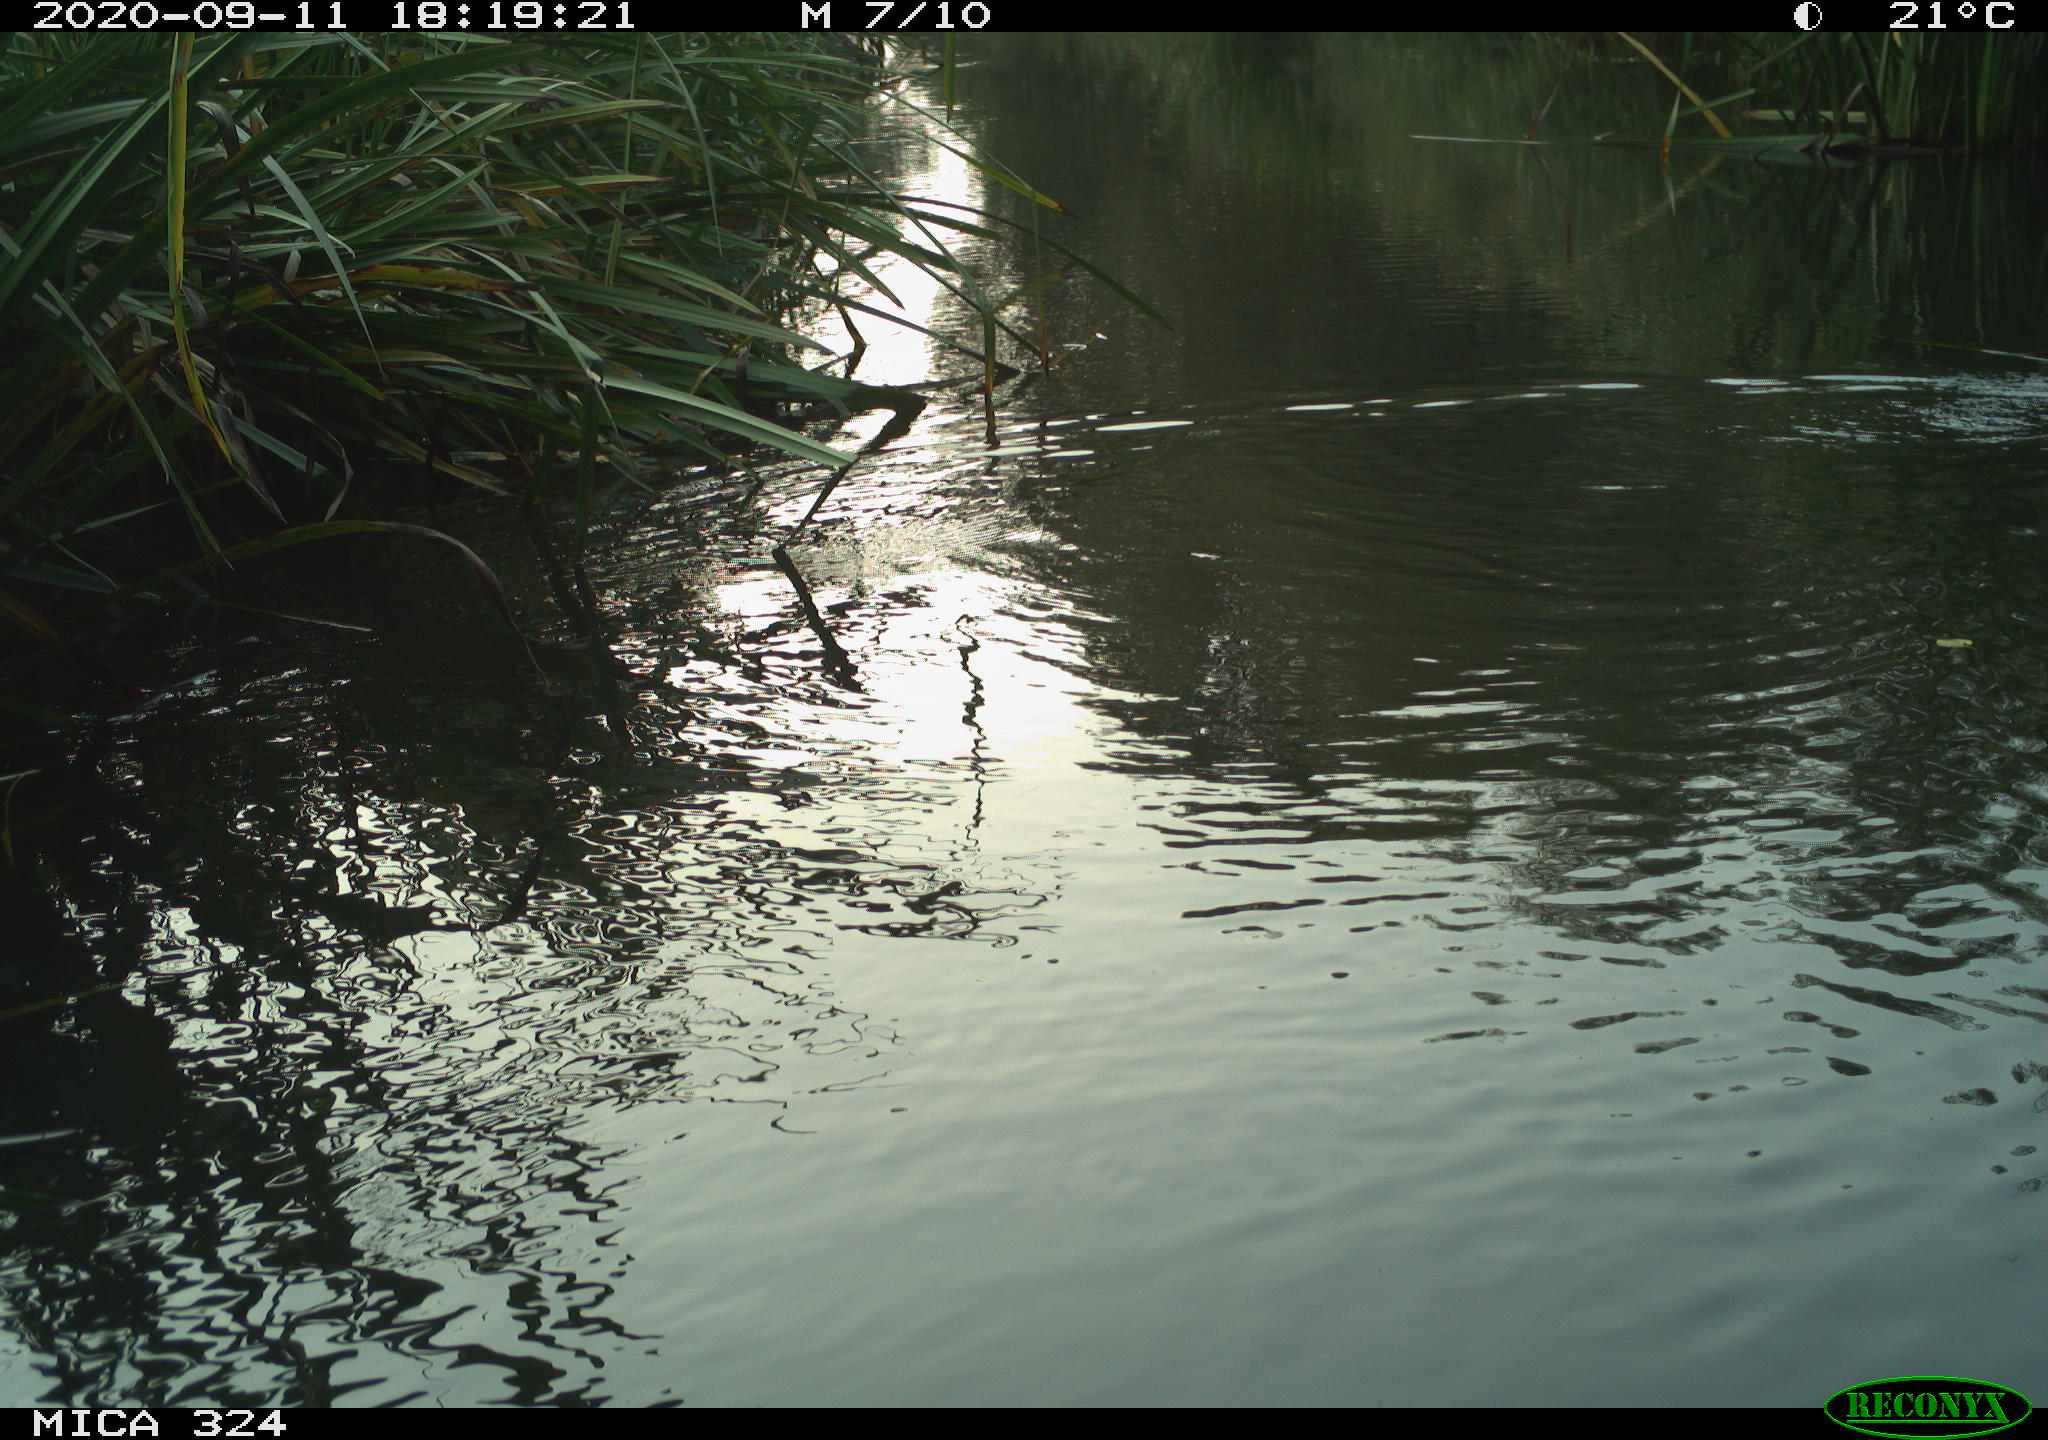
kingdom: Animalia
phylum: Chordata
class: Mammalia
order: Rodentia
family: Cricetidae
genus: Ondatra
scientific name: Ondatra zibethicus
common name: Muskrat
